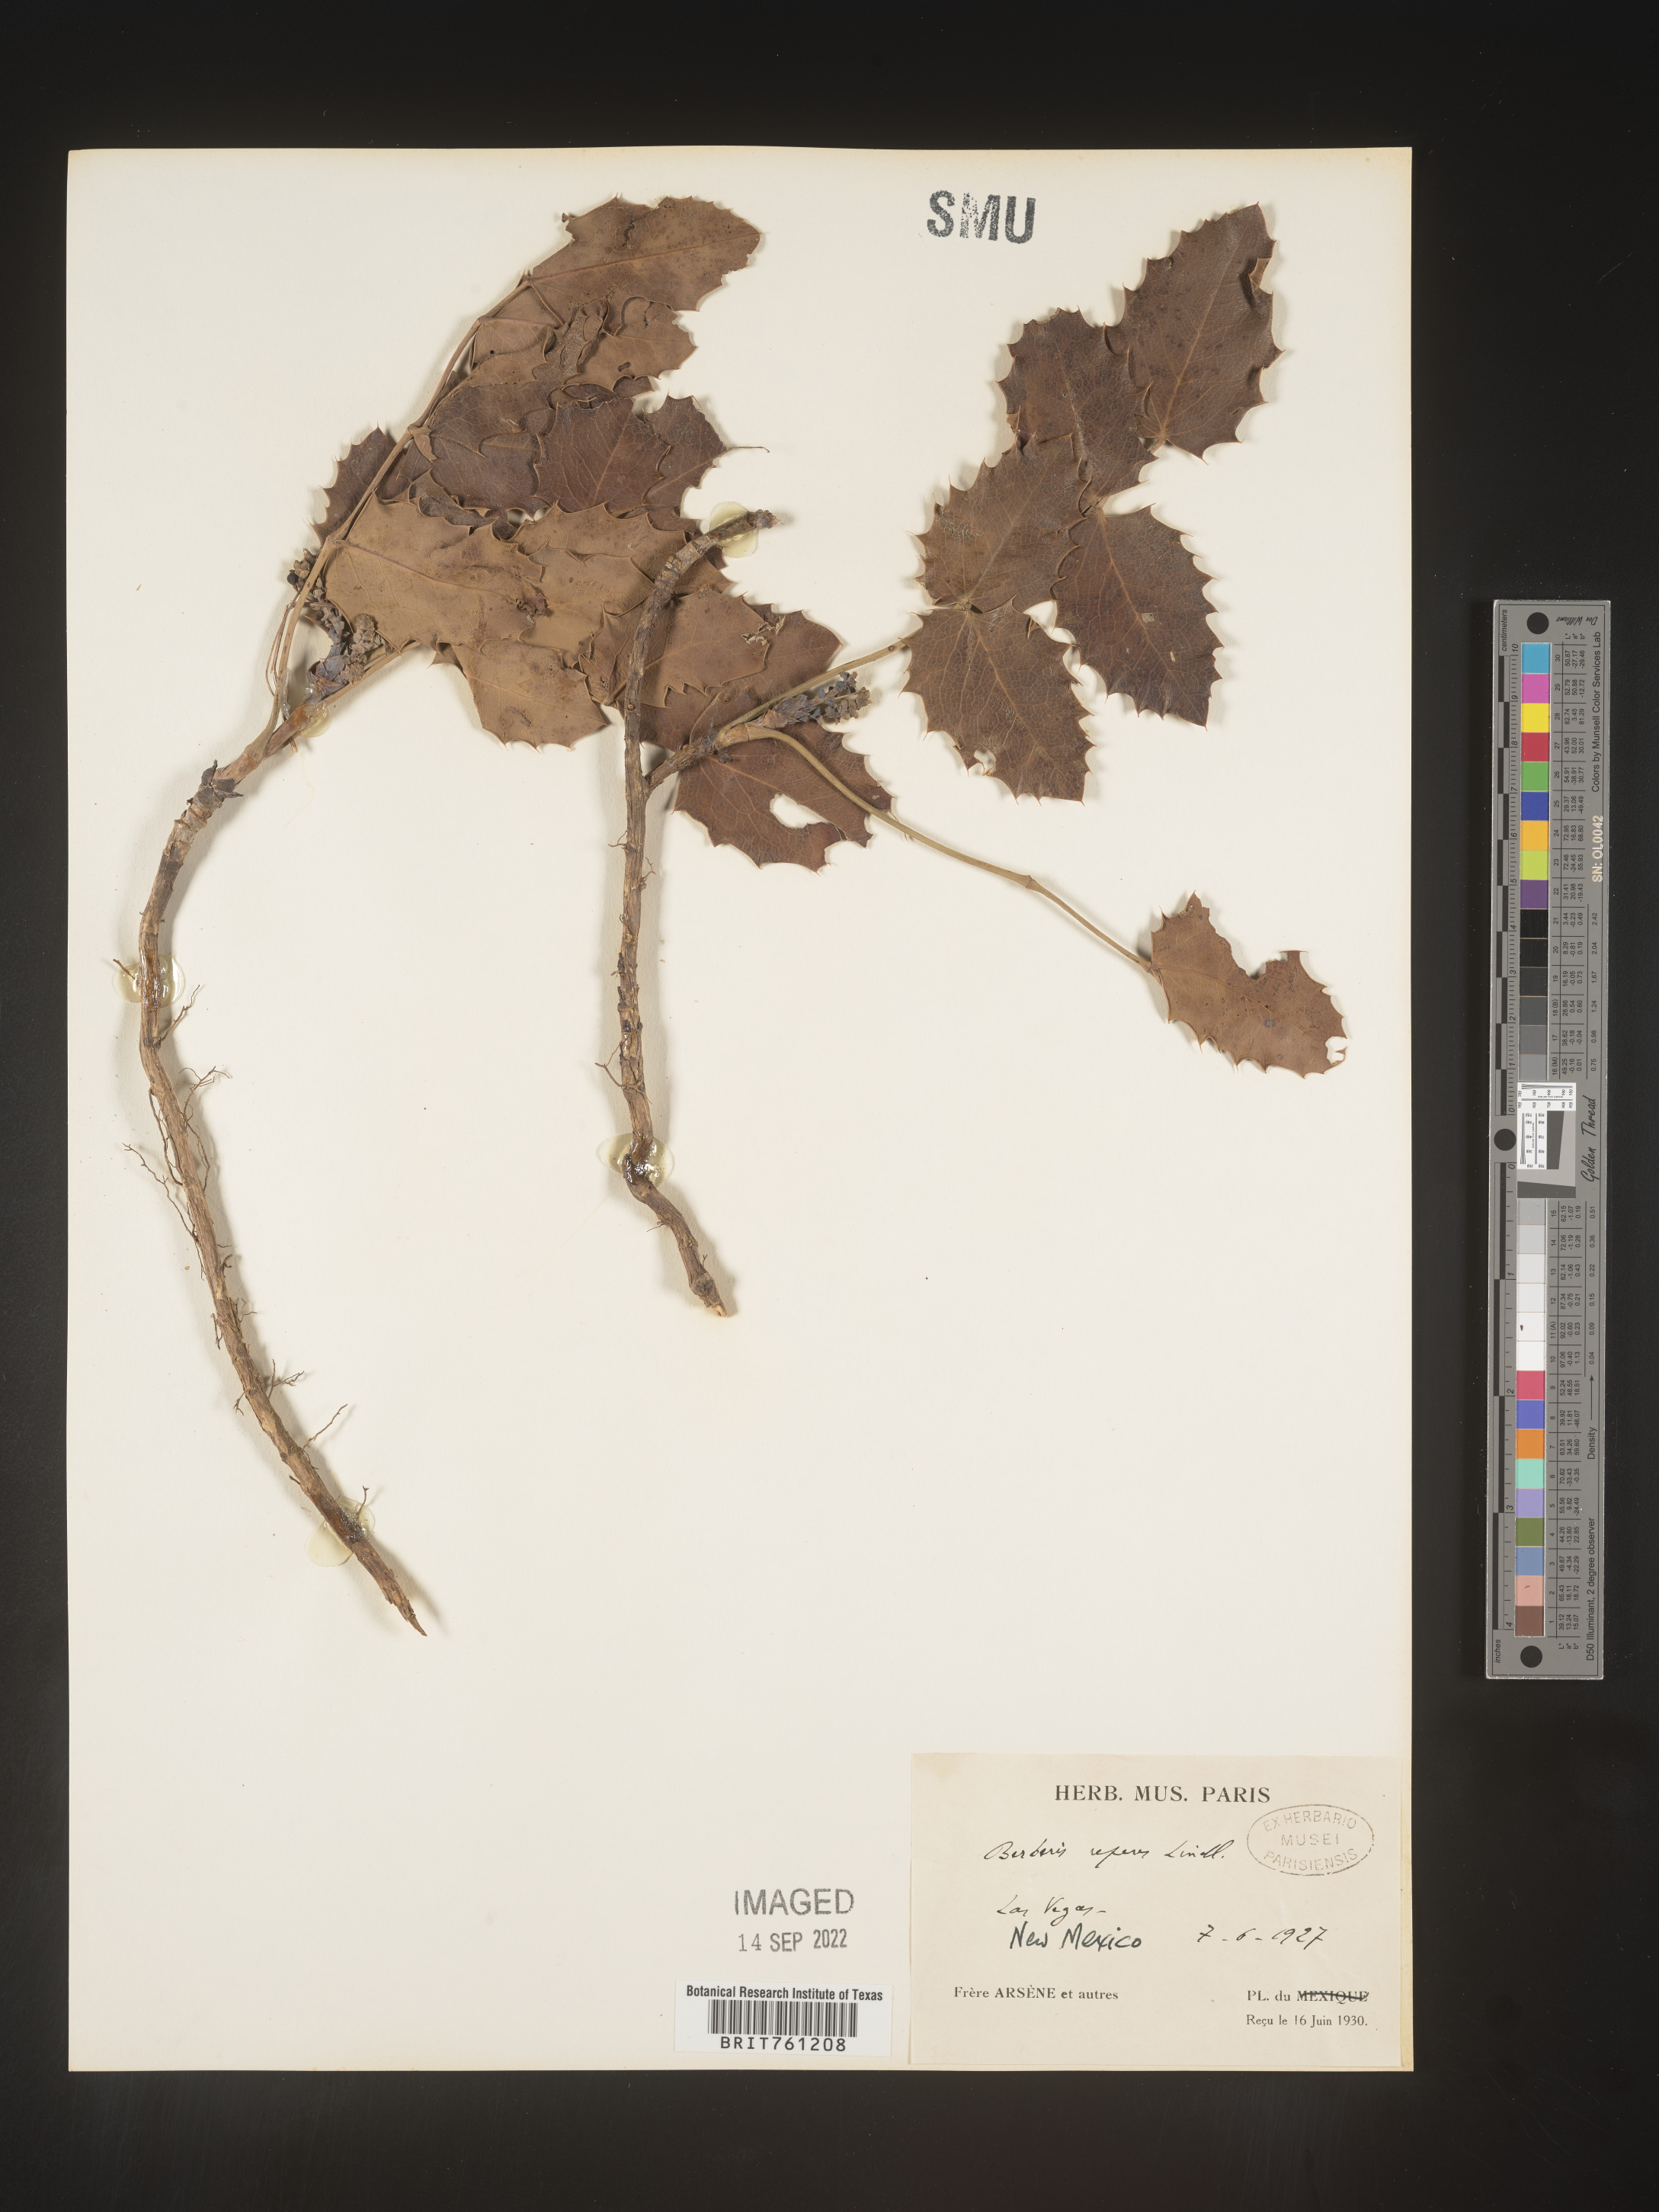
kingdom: Plantae
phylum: Tracheophyta
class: Magnoliopsida
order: Ranunculales
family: Berberidaceae
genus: Mahonia
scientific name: Mahonia repens
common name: Creeping oregon-grape
